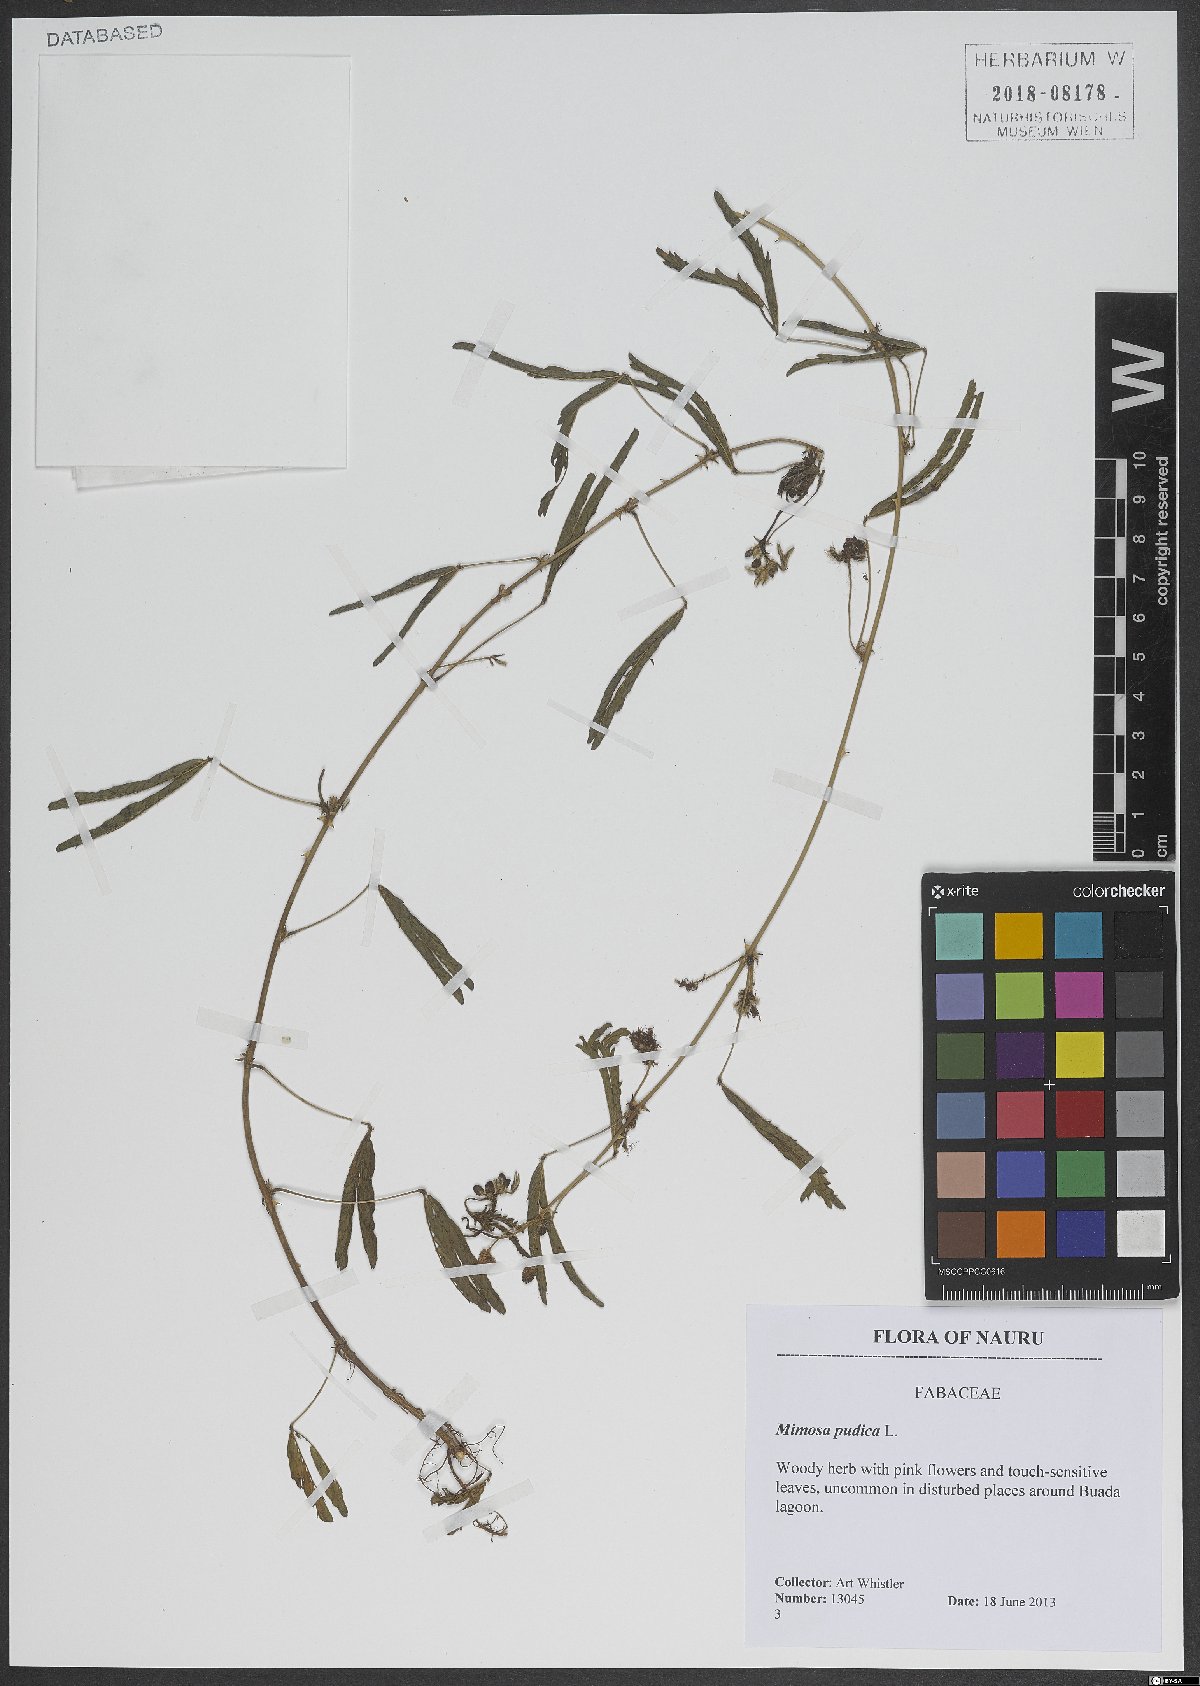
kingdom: Plantae
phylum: Tracheophyta
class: Magnoliopsida
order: Fabales
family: Fabaceae
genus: Mimosa
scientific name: Mimosa pudica
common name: Sensitive plant
